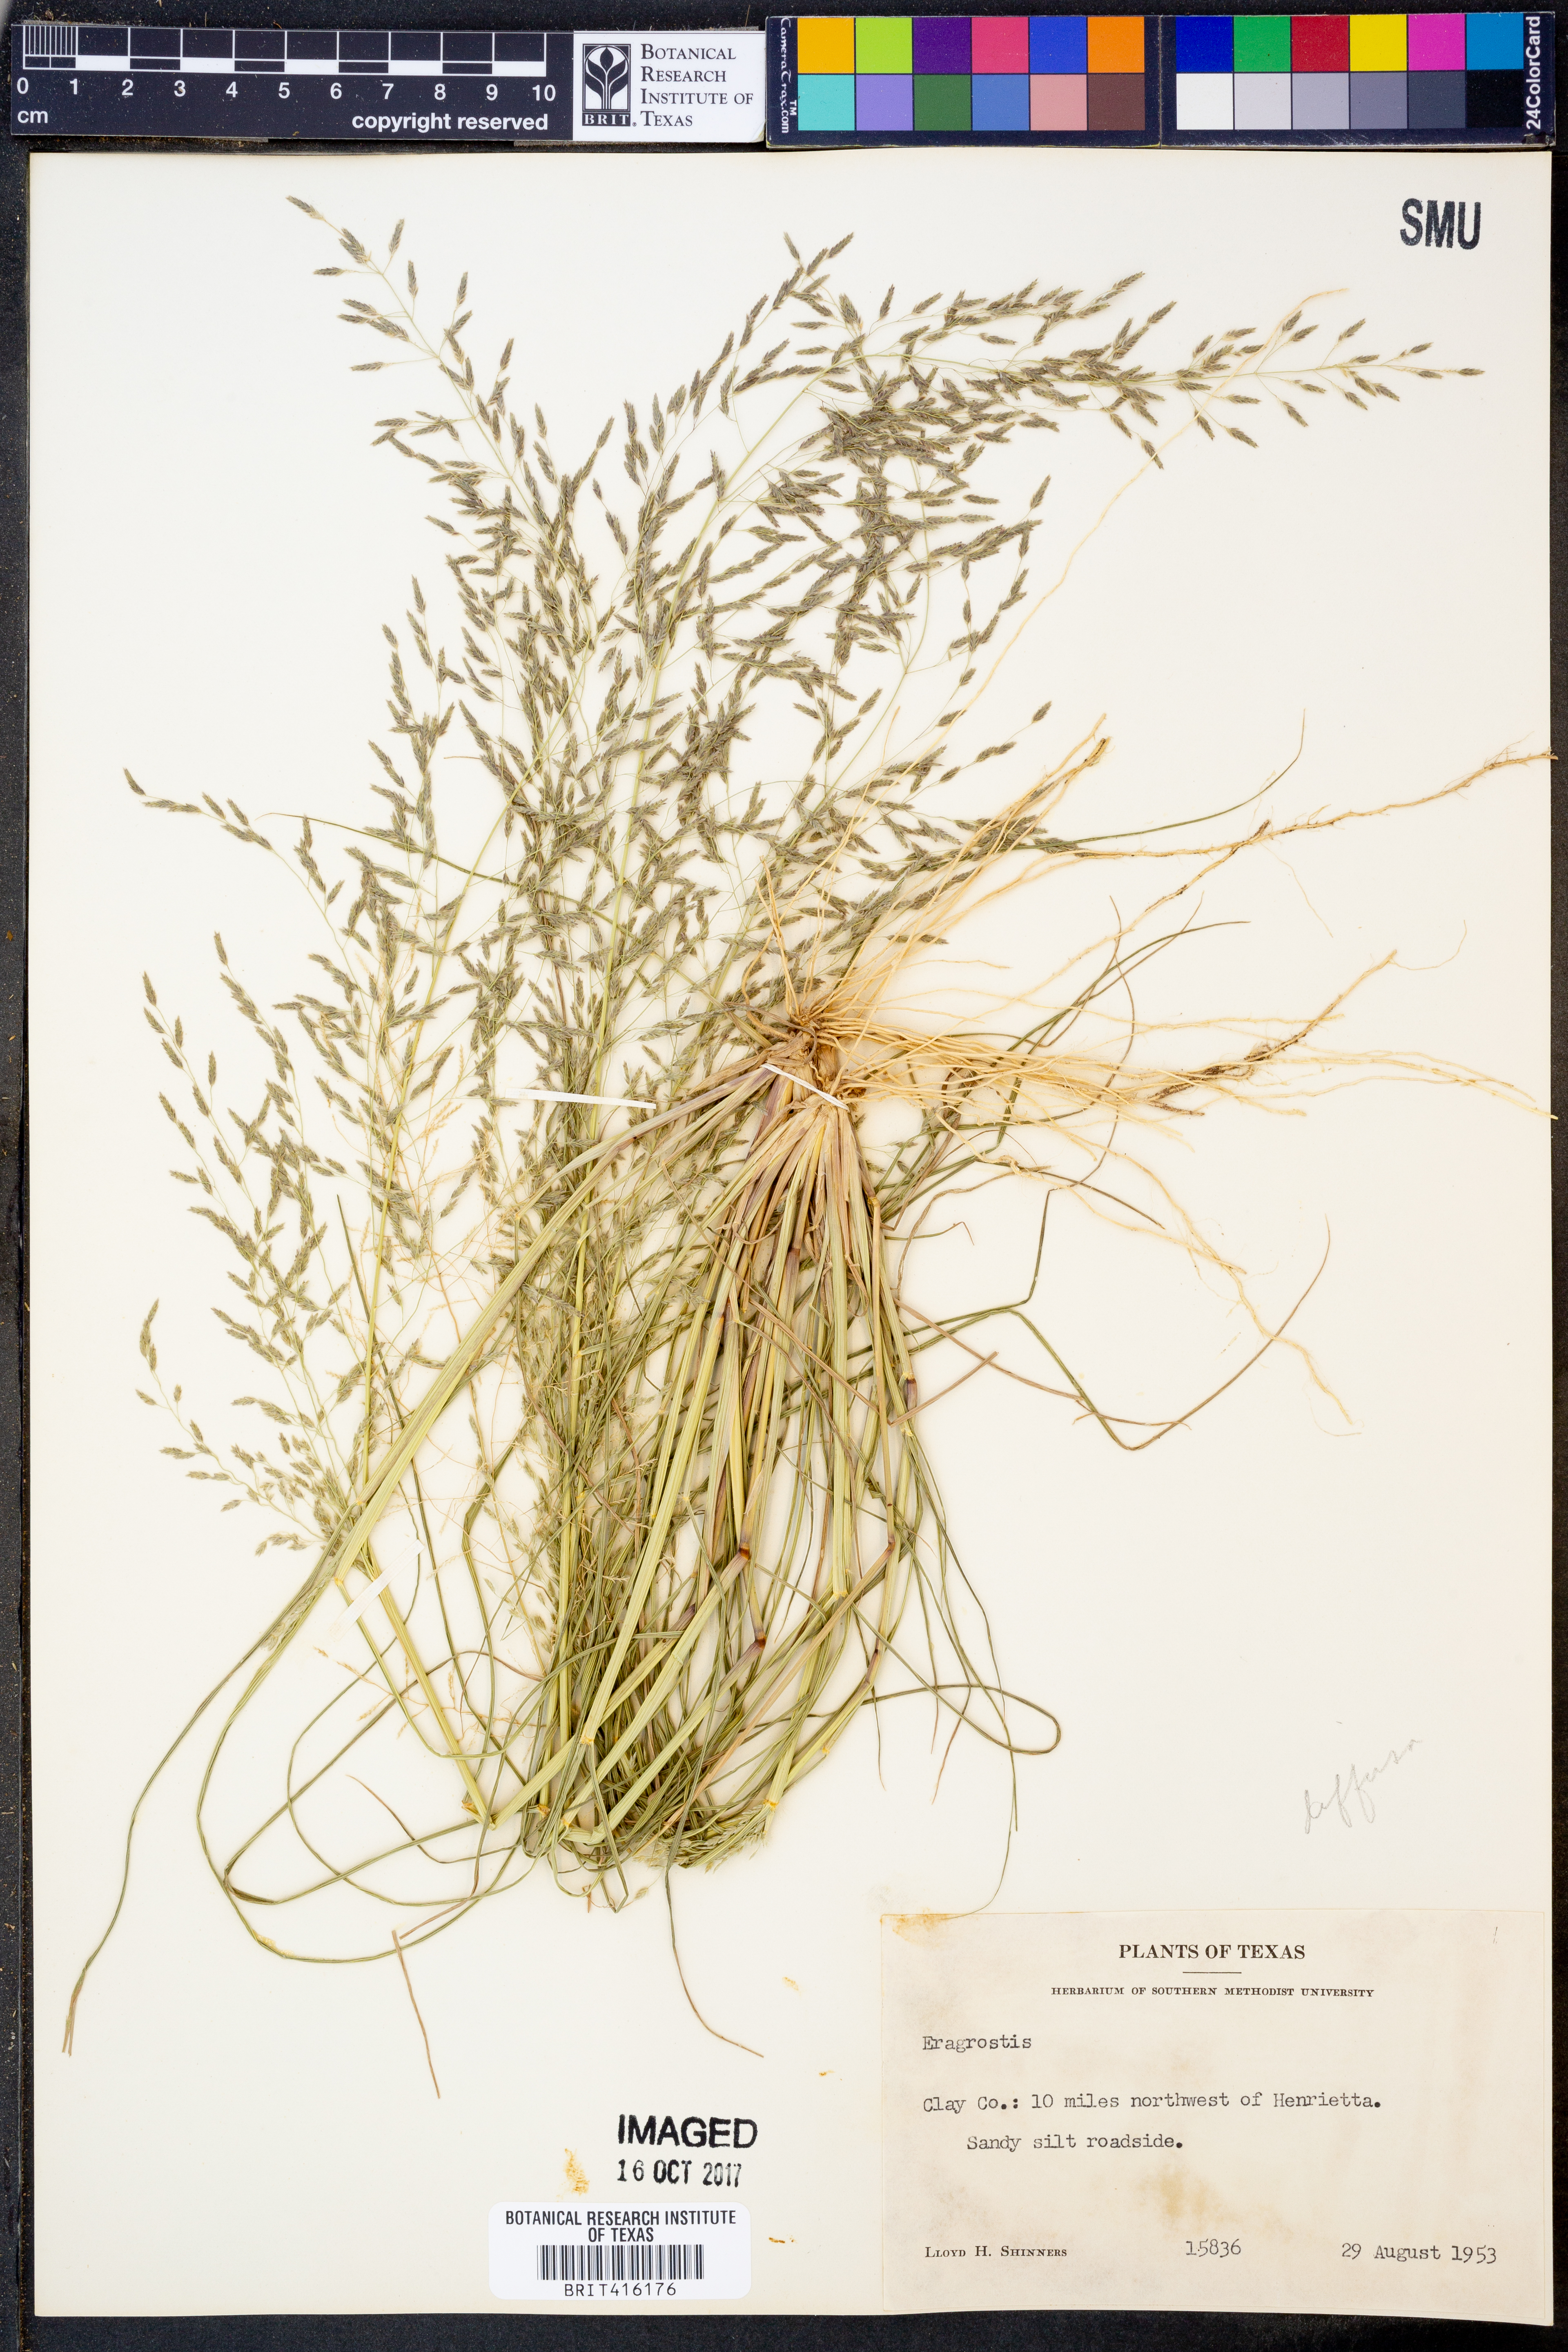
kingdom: Plantae
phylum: Tracheophyta
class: Liliopsida
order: Poales
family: Poaceae
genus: Eragrostis
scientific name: Eragrostis
